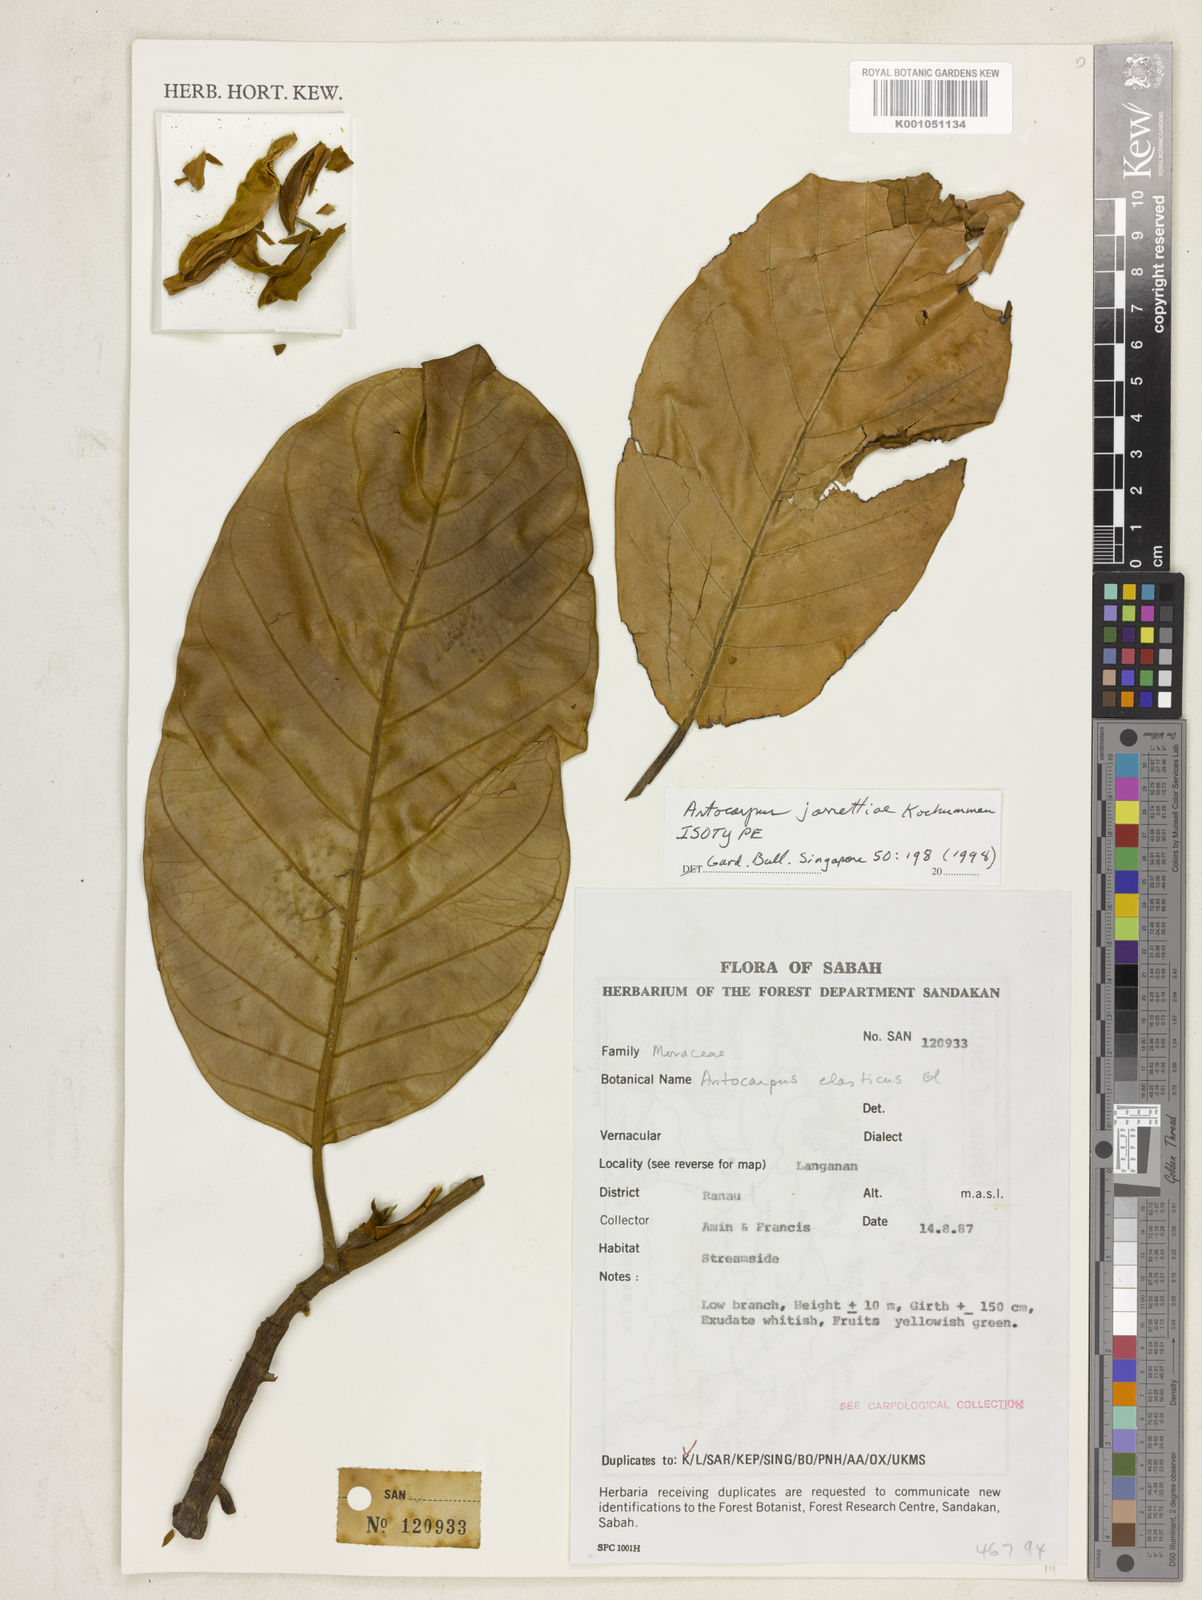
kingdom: Plantae
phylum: Tracheophyta
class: Magnoliopsida
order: Rosales
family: Moraceae
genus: Artocarpus
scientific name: Artocarpus elasticus
